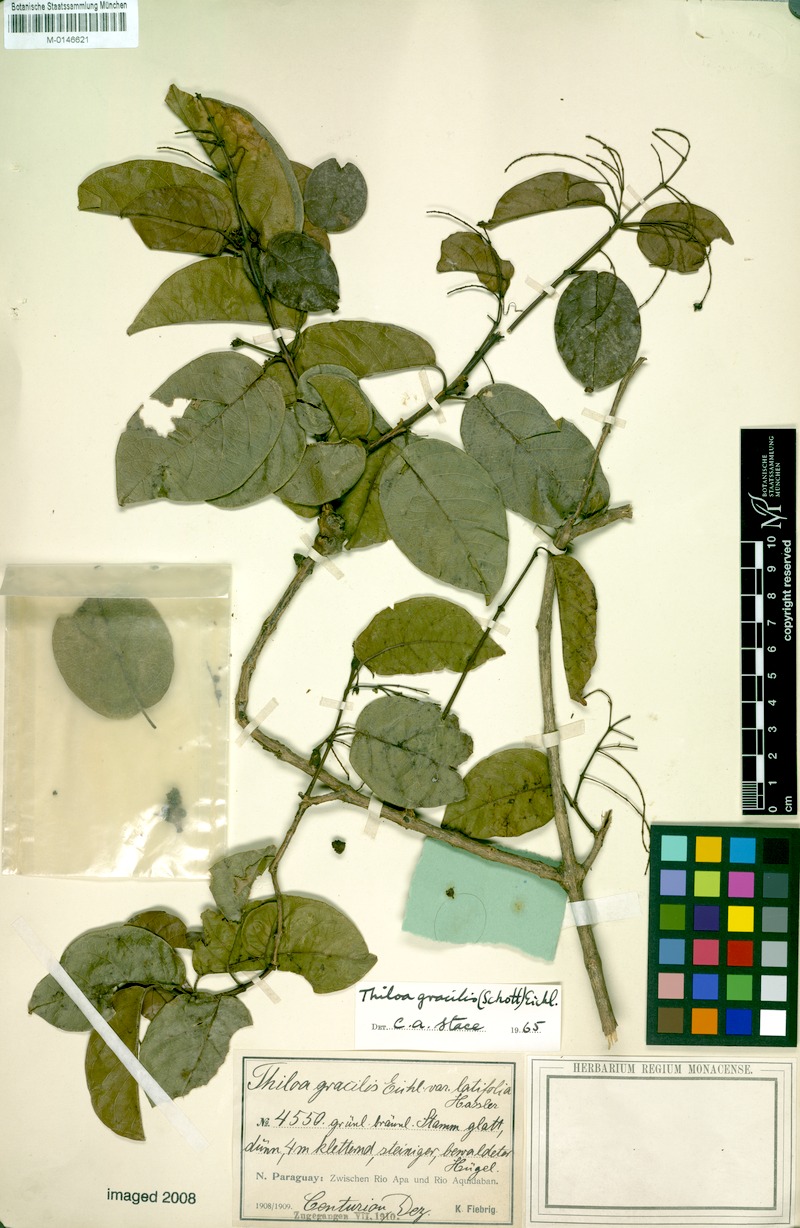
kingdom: Plantae
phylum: Tracheophyta
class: Magnoliopsida
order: Myrtales
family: Combretaceae
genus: Combretum
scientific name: Combretum gracile
